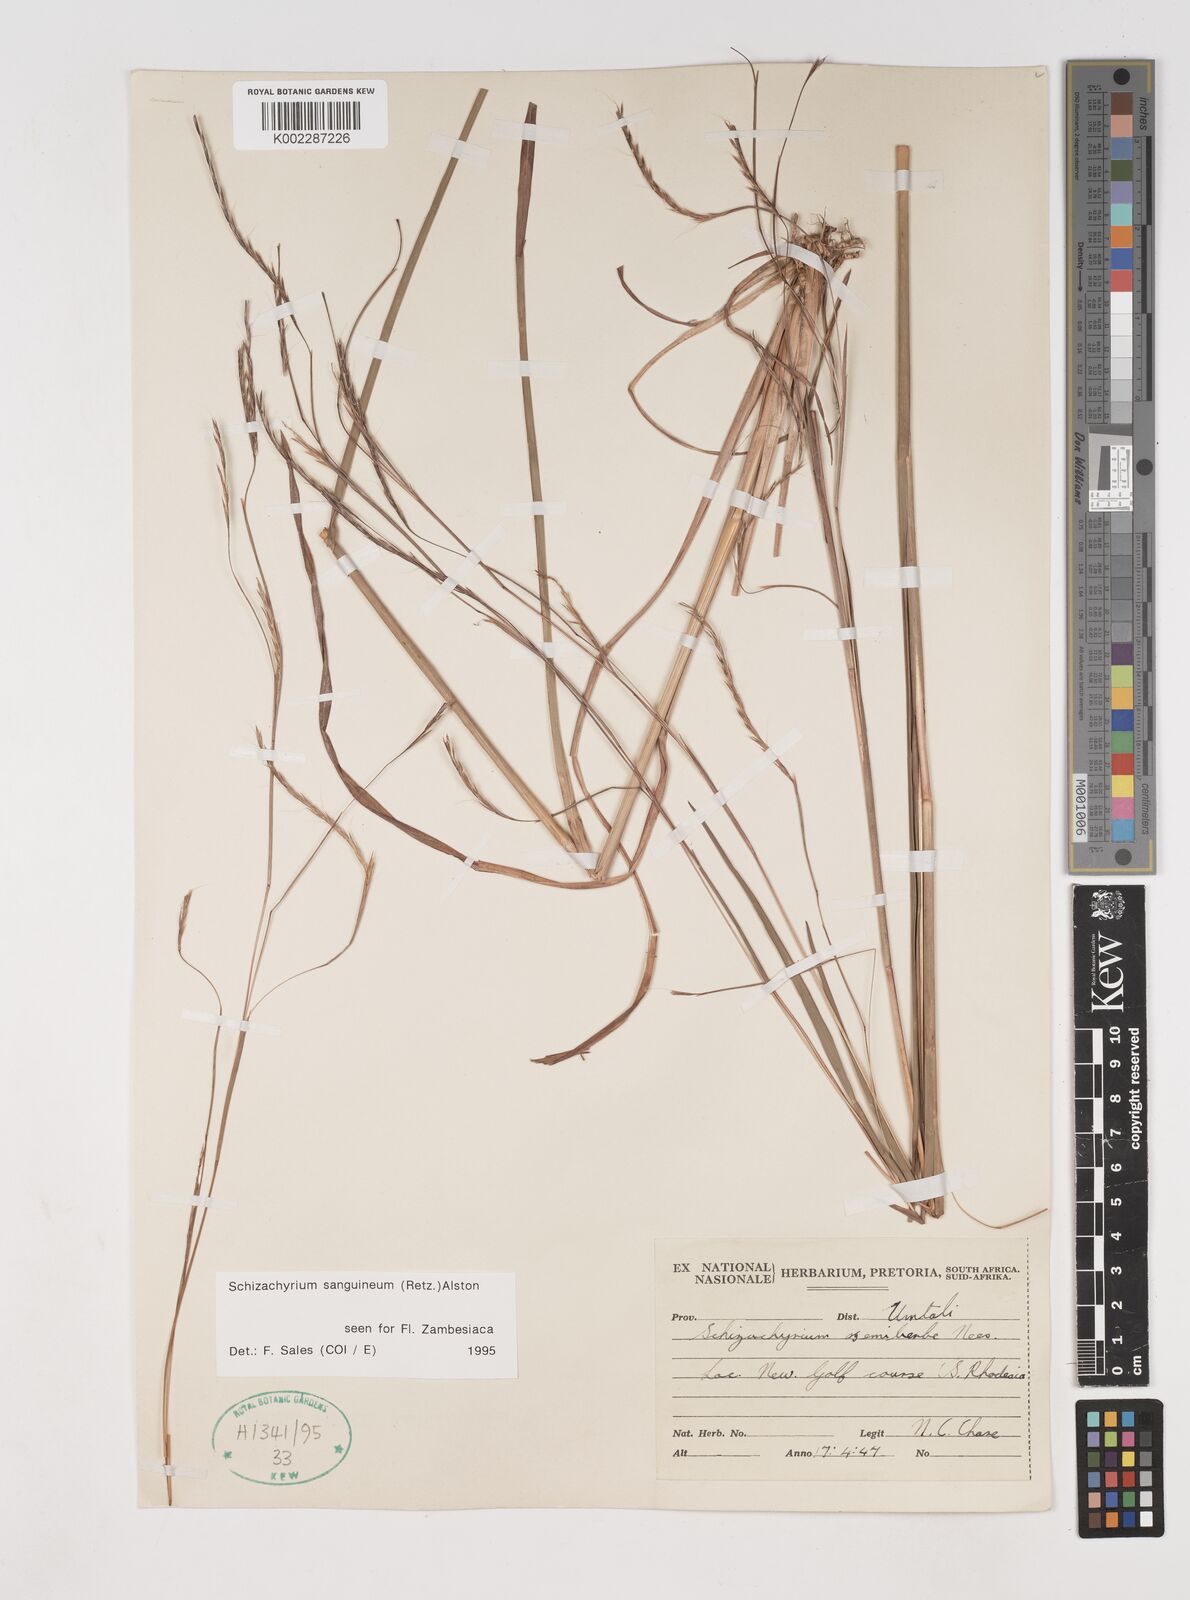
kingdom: Plantae
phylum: Tracheophyta
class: Liliopsida
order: Poales
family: Poaceae
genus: Schizachyrium
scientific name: Schizachyrium sanguineum
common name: Crimson bluestem
